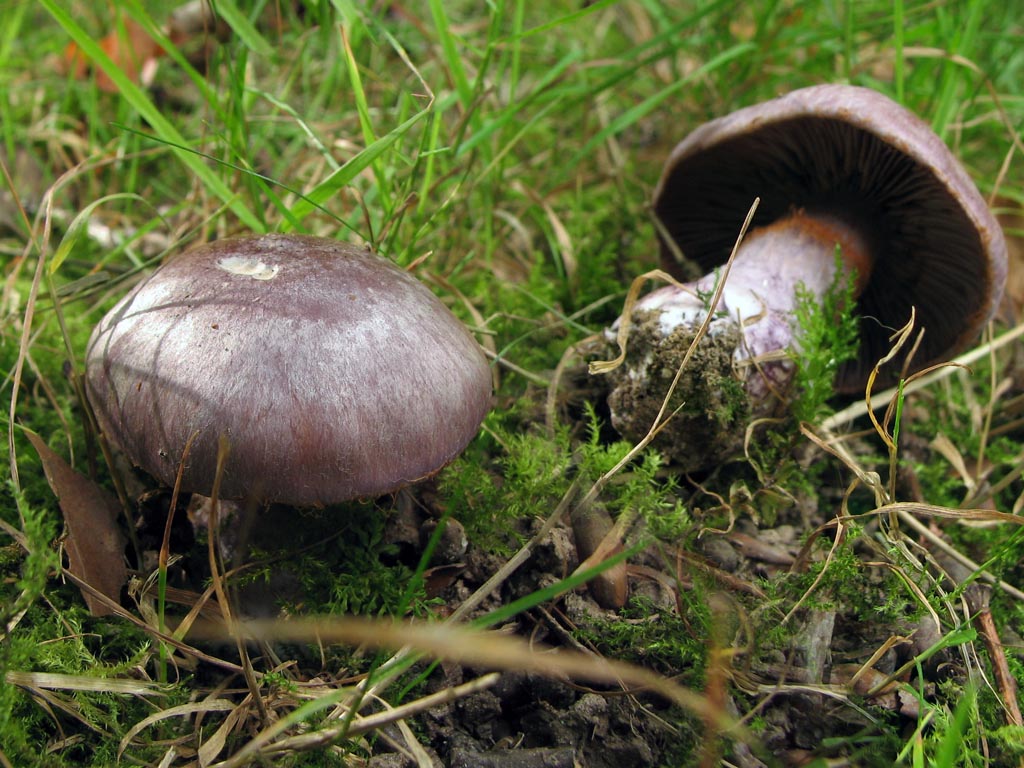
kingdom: Fungi
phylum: Basidiomycota
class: Agaricomycetes
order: Agaricales
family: Cortinariaceae
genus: Thaxterogaster
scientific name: Thaxterogaster subpurpurascens
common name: mørkblånende slørhat
